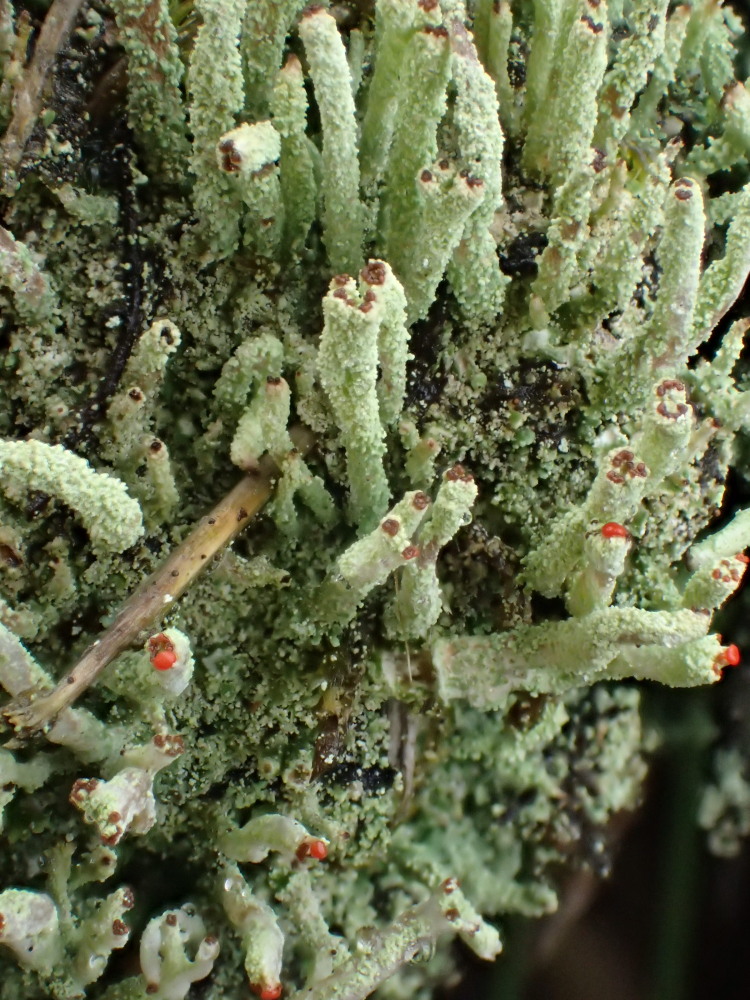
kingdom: Fungi
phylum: Ascomycota
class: Lecanoromycetes
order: Lecanorales
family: Cladoniaceae
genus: Cladonia
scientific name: Cladonia macilenta
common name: indsvunden bægerlav
